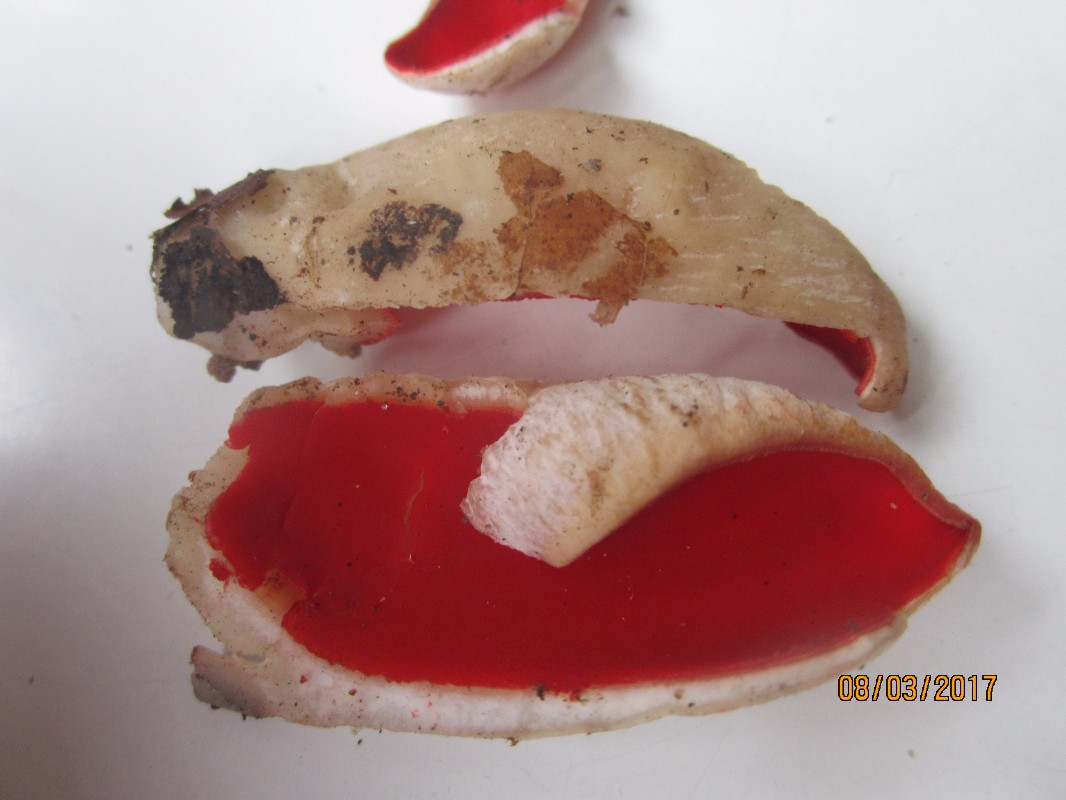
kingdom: Fungi
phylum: Ascomycota
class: Pezizomycetes
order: Pezizales
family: Sarcoscyphaceae
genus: Sarcoscypha
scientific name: Sarcoscypha
